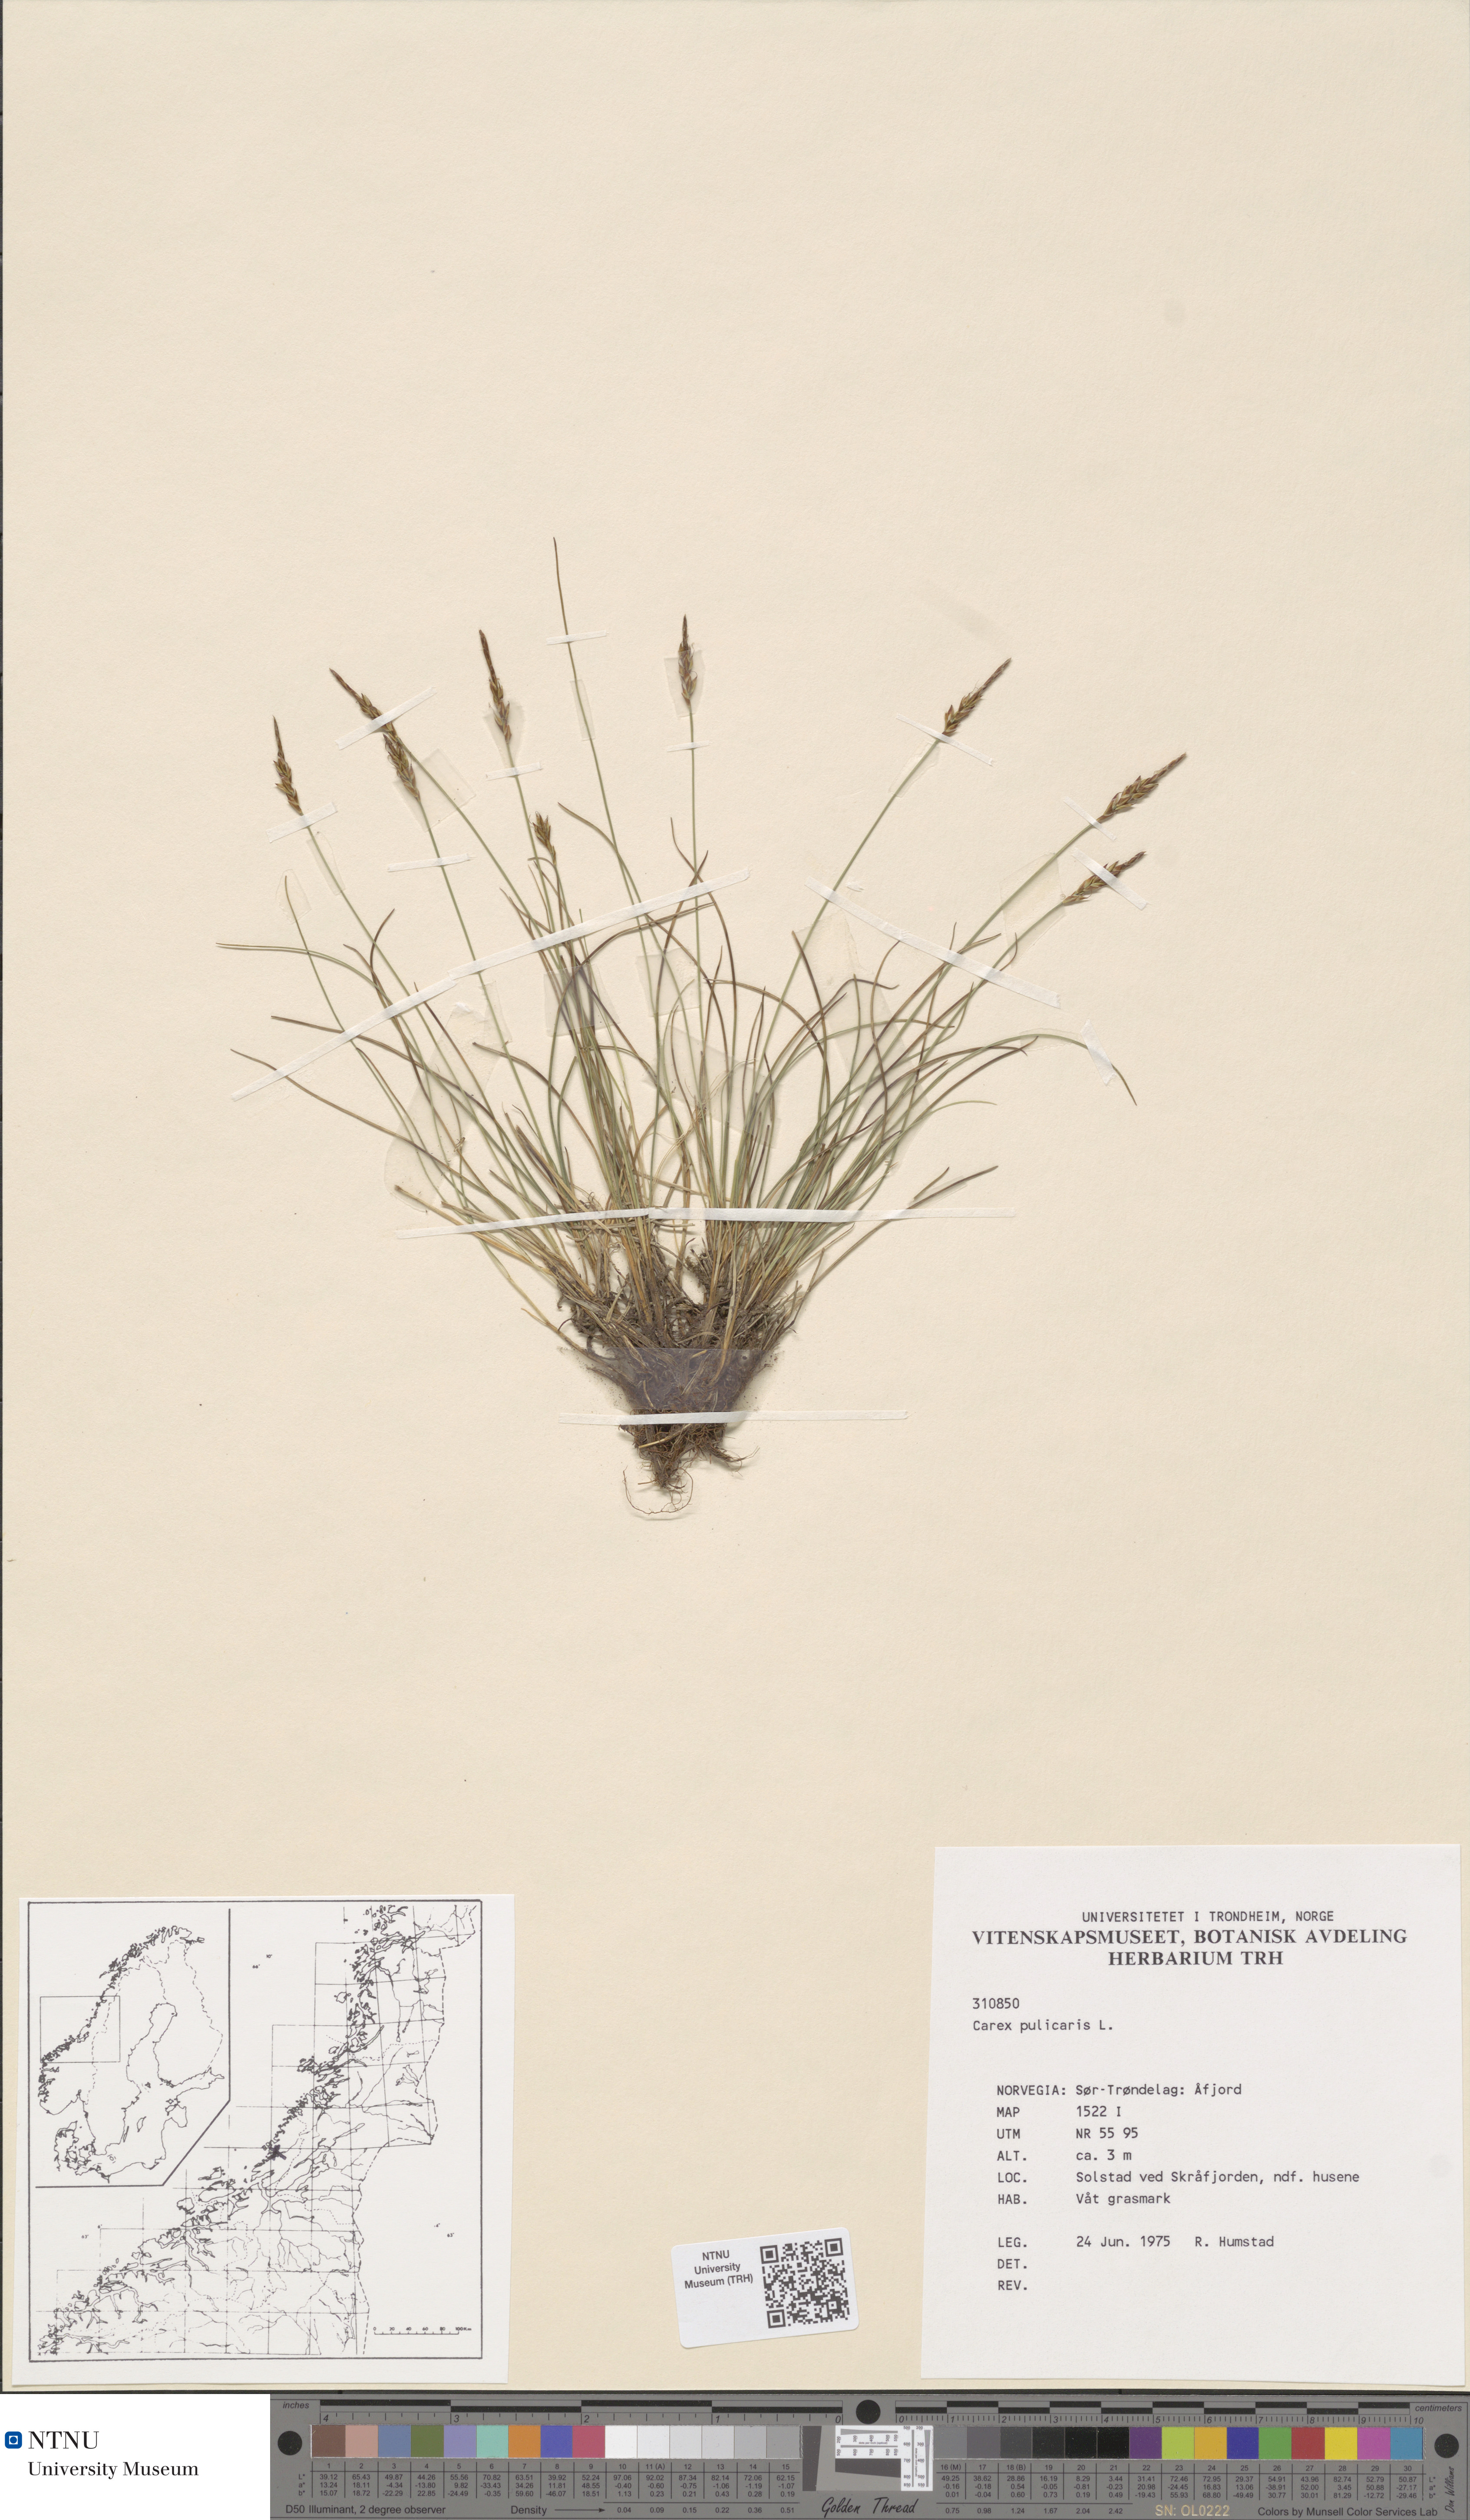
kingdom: Plantae
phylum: Tracheophyta
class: Liliopsida
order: Poales
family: Cyperaceae
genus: Carex
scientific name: Carex pulicaris
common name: Flea sedge
